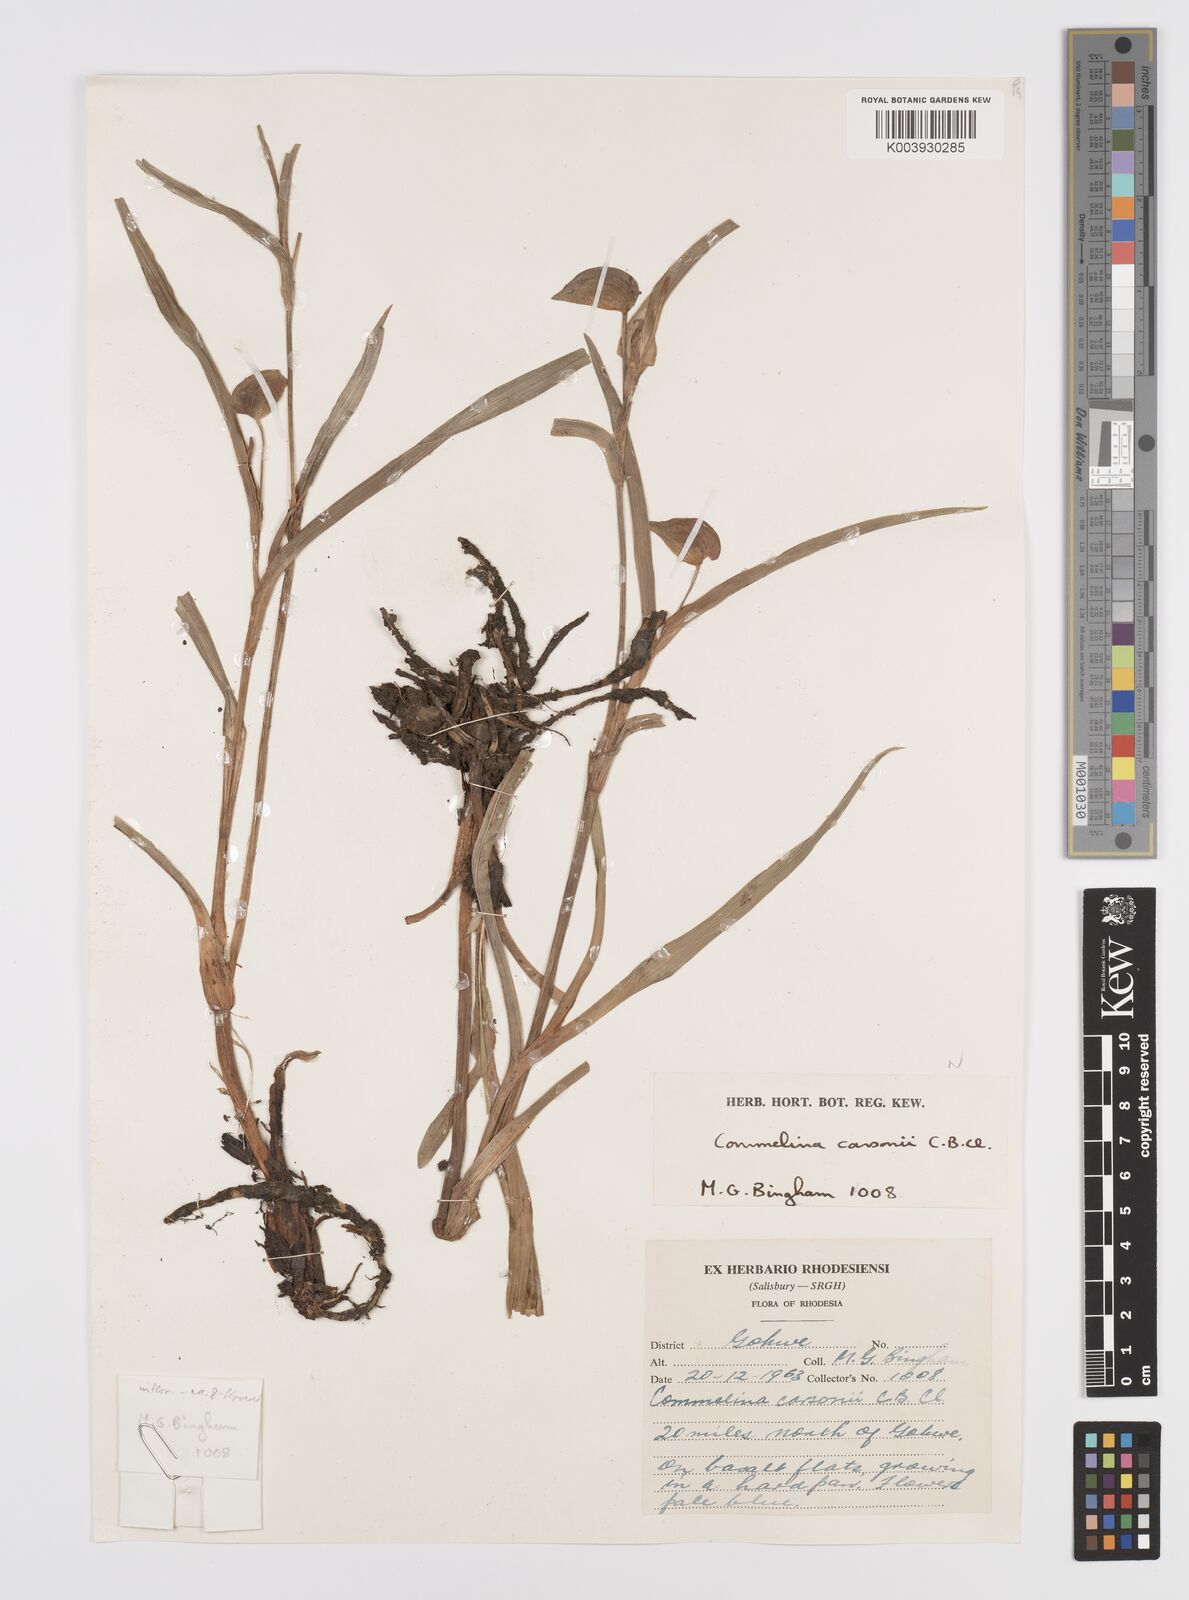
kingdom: Plantae
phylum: Tracheophyta
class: Liliopsida
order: Commelinales
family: Commelinaceae
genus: Commelina
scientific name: Commelina schweinfurthii
